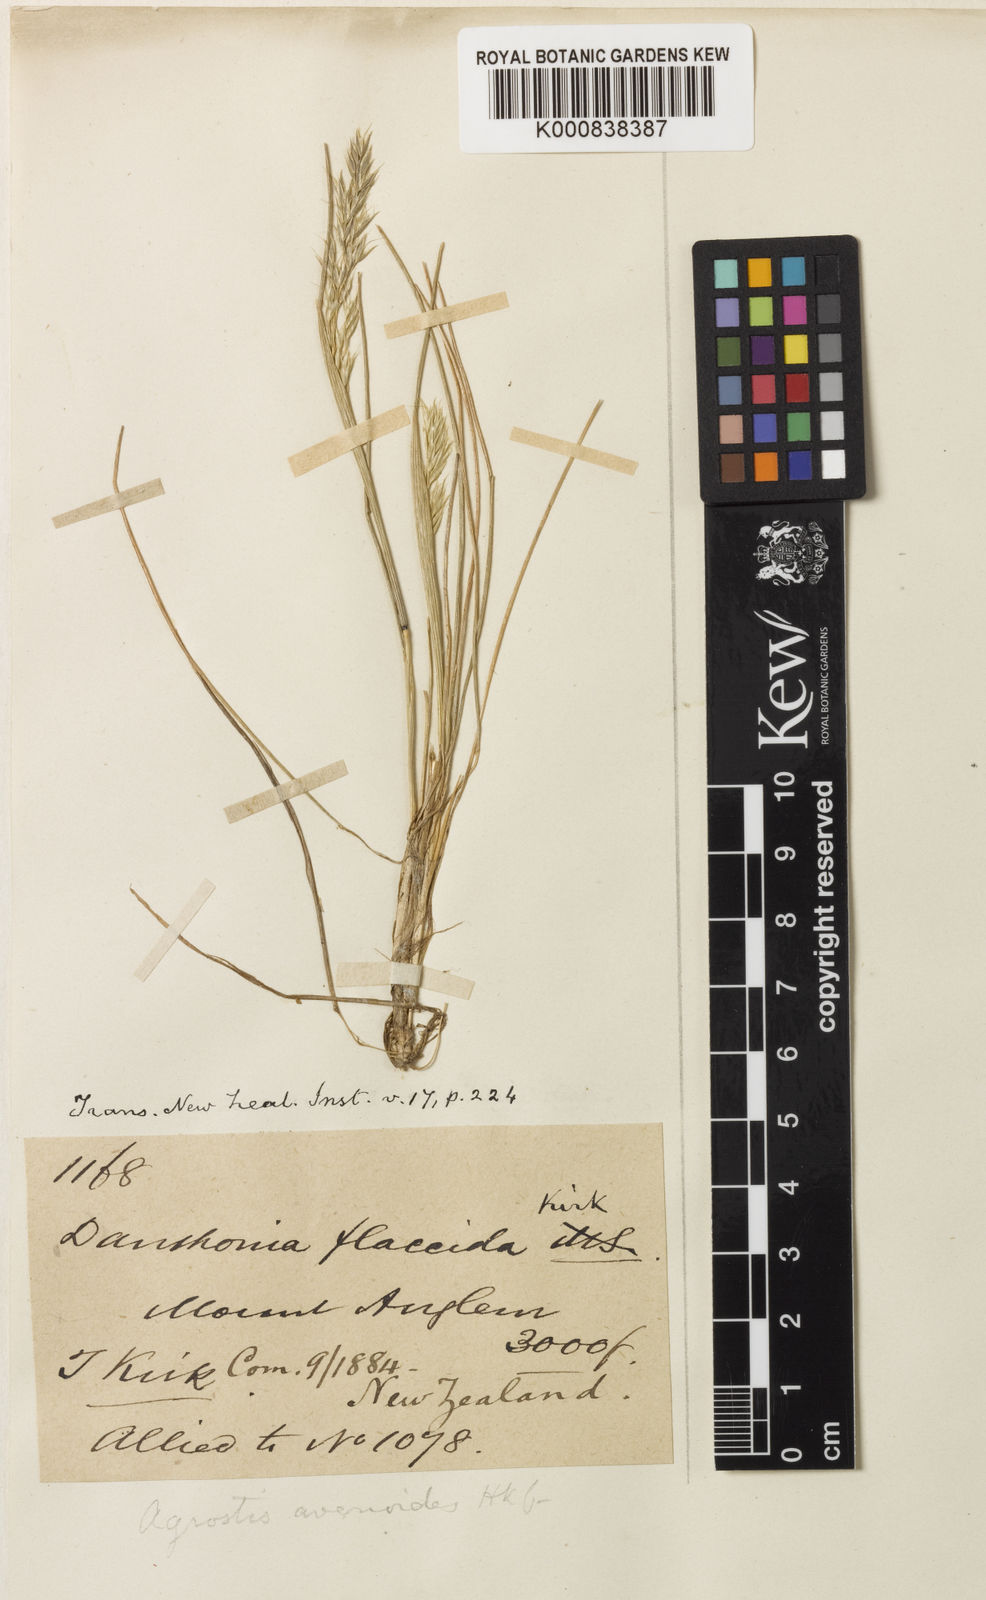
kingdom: Plantae
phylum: Tracheophyta
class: Liliopsida
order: Poales
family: Poaceae
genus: Calamagrostis
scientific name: Calamagrostis avenoides
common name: Mountain oat grass
